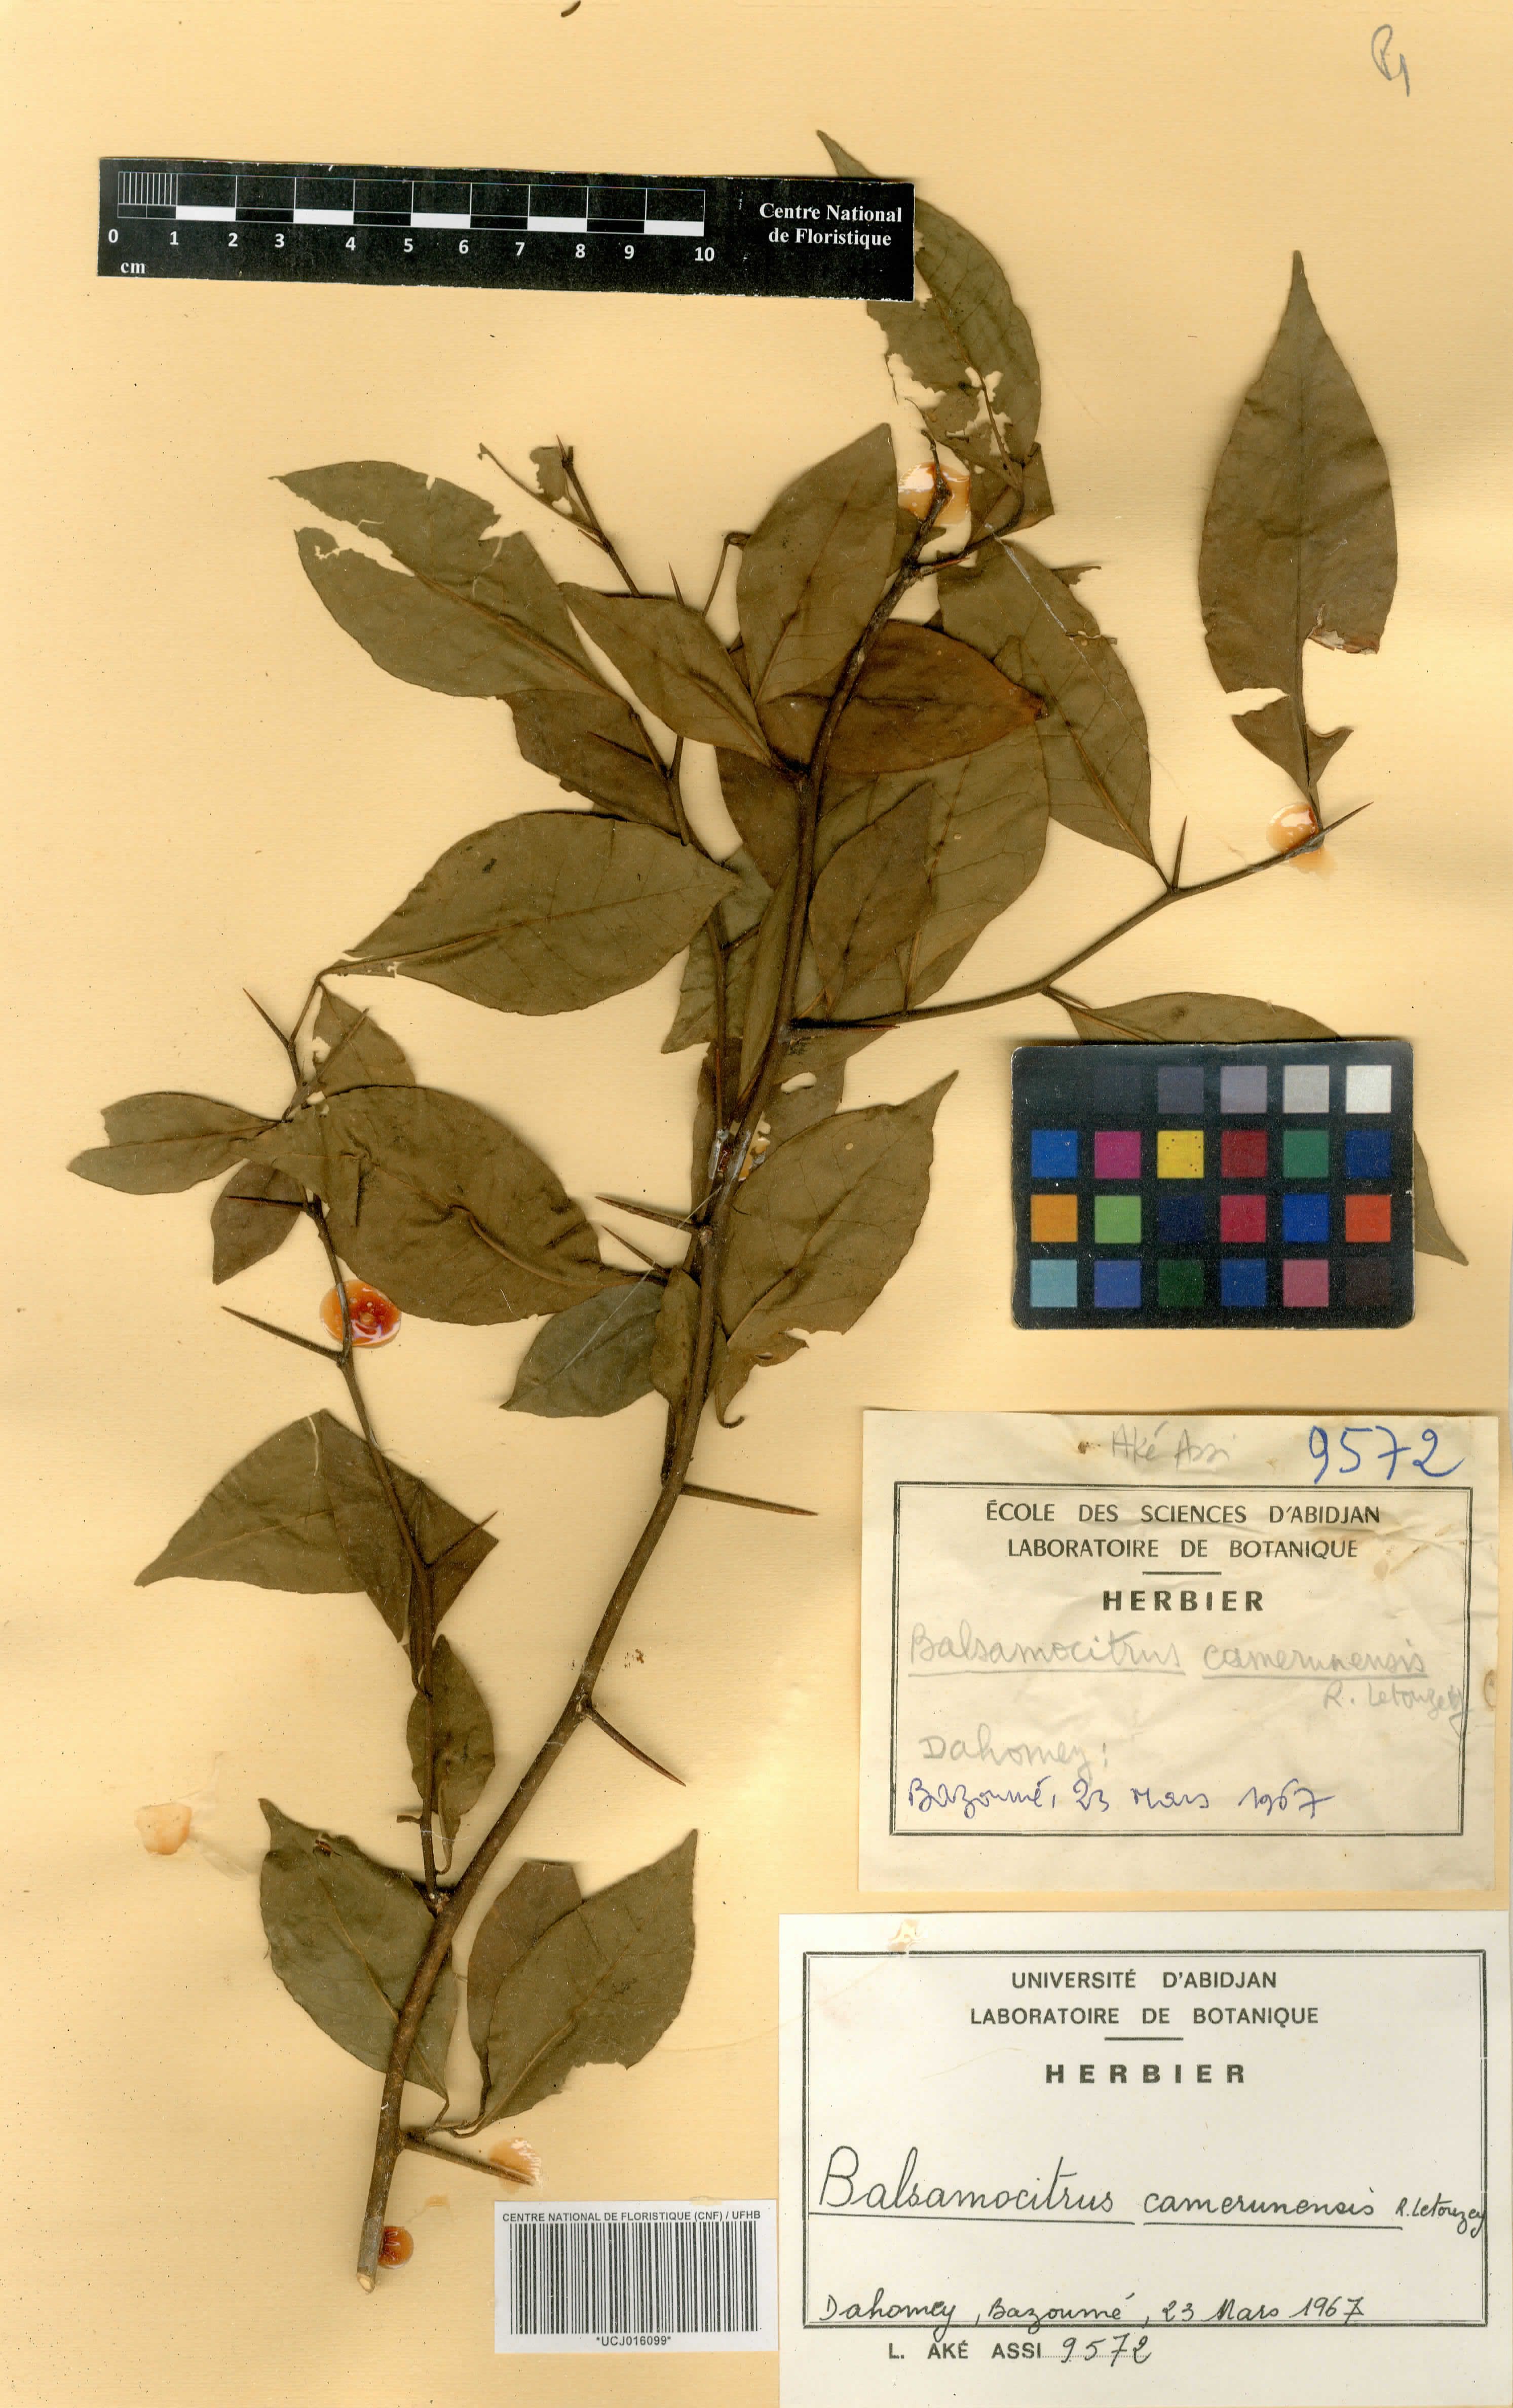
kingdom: Plantae
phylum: Tracheophyta
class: Magnoliopsida
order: Sapindales
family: Rutaceae
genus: Balsamocitrus
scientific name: Balsamocitrus camerunensis
